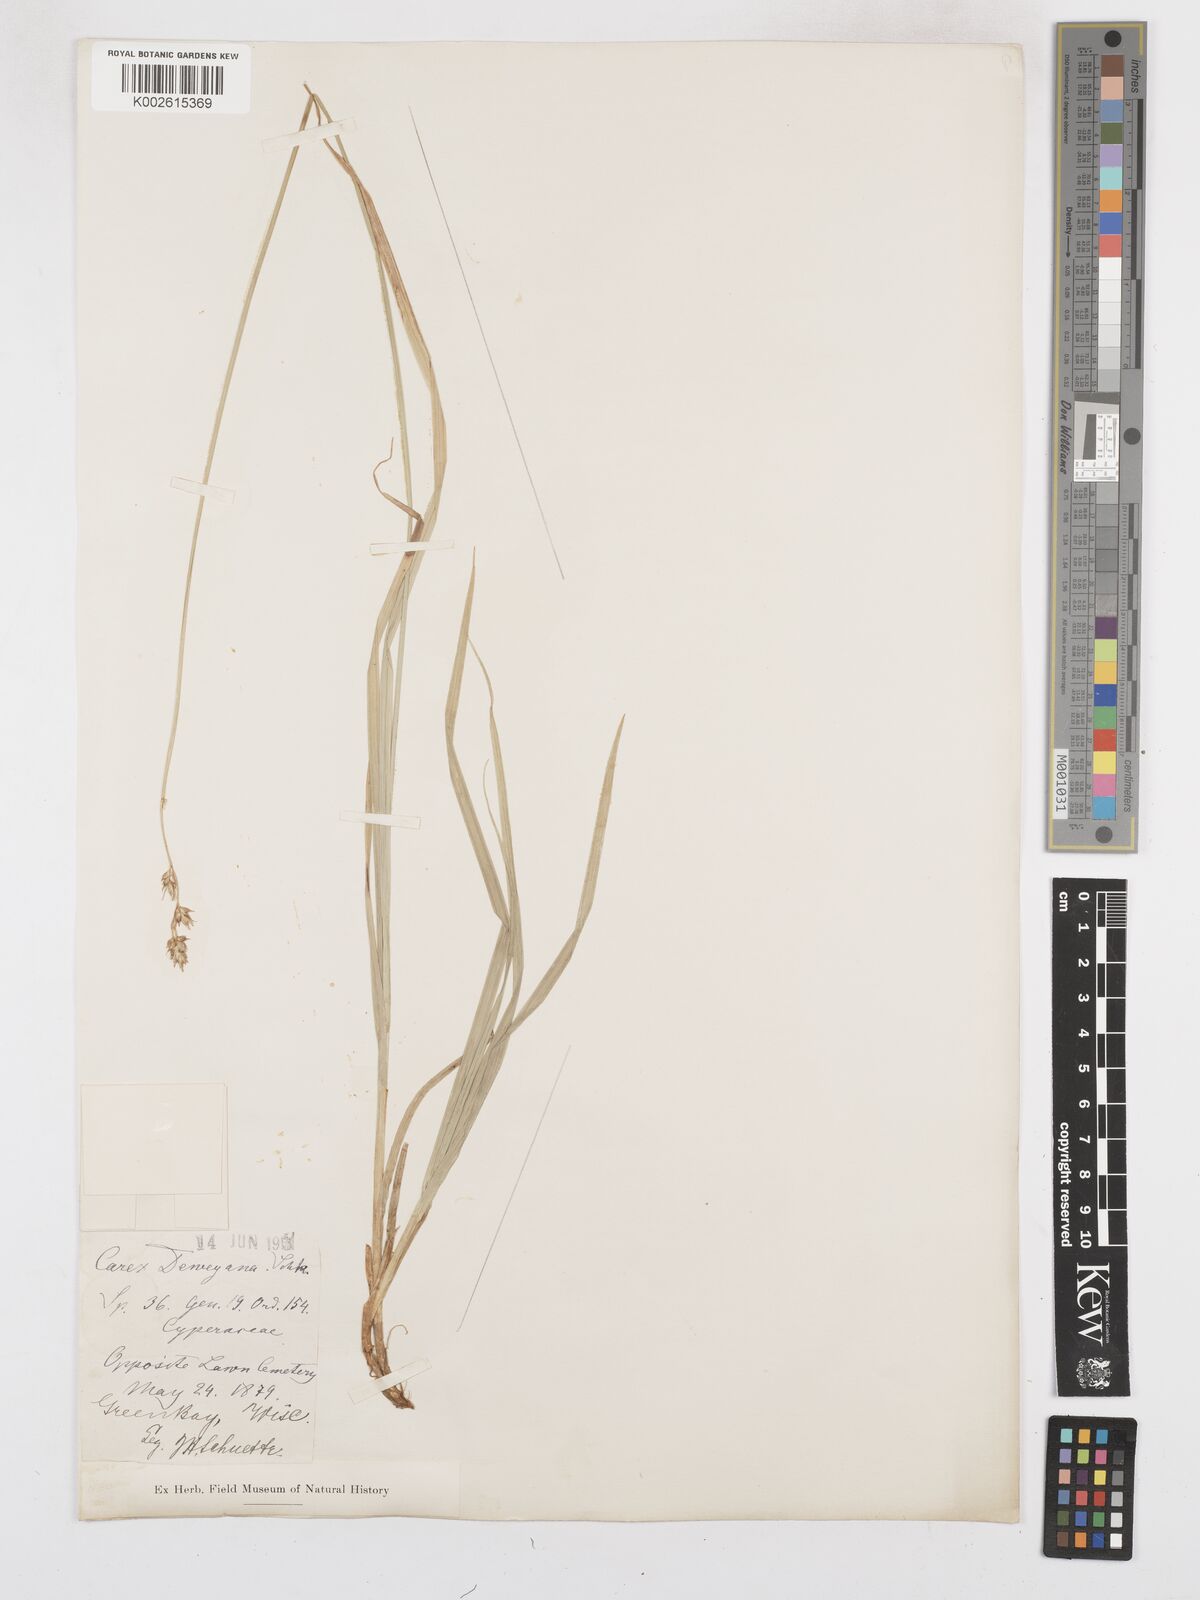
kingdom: Plantae
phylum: Tracheophyta
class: Liliopsida
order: Poales
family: Cyperaceae
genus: Carex
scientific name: Carex deweyana
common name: Dewey's sedge
